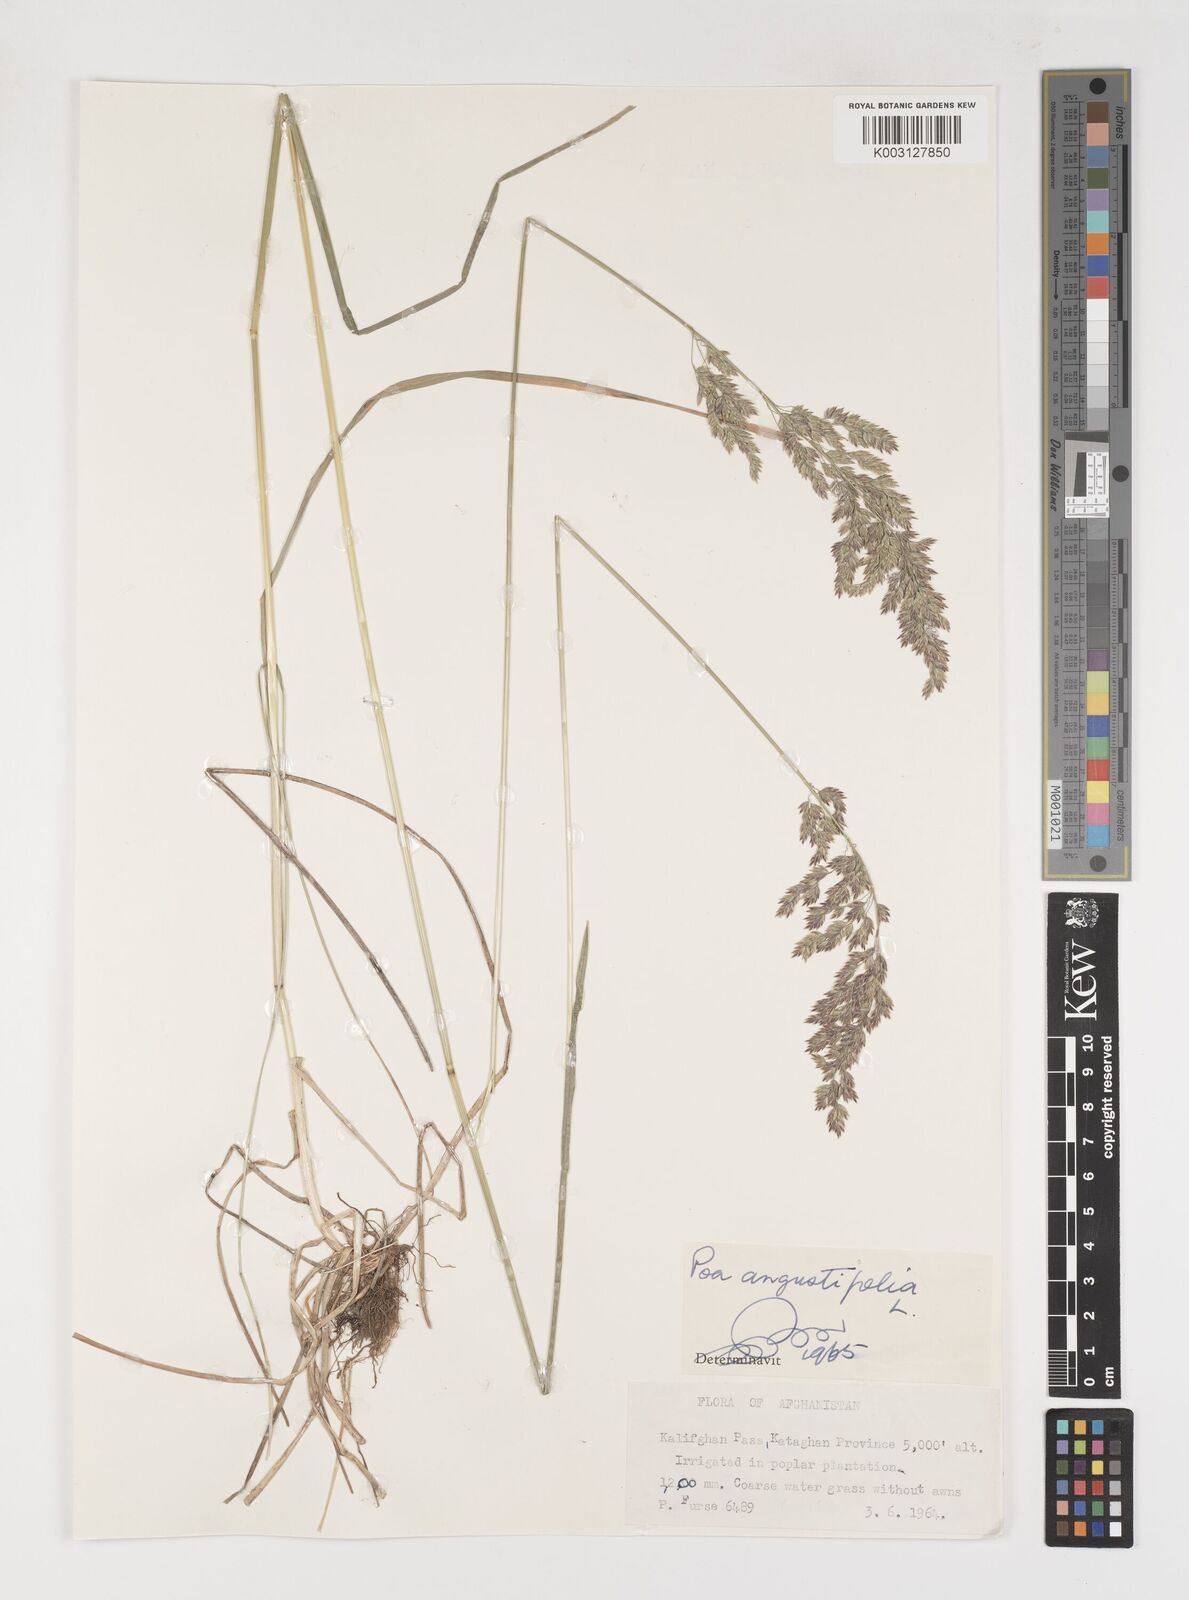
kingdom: Plantae
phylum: Tracheophyta
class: Liliopsida
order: Poales
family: Poaceae
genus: Poa
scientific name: Poa angustifolia
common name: Narrow-leaved meadow-grass
